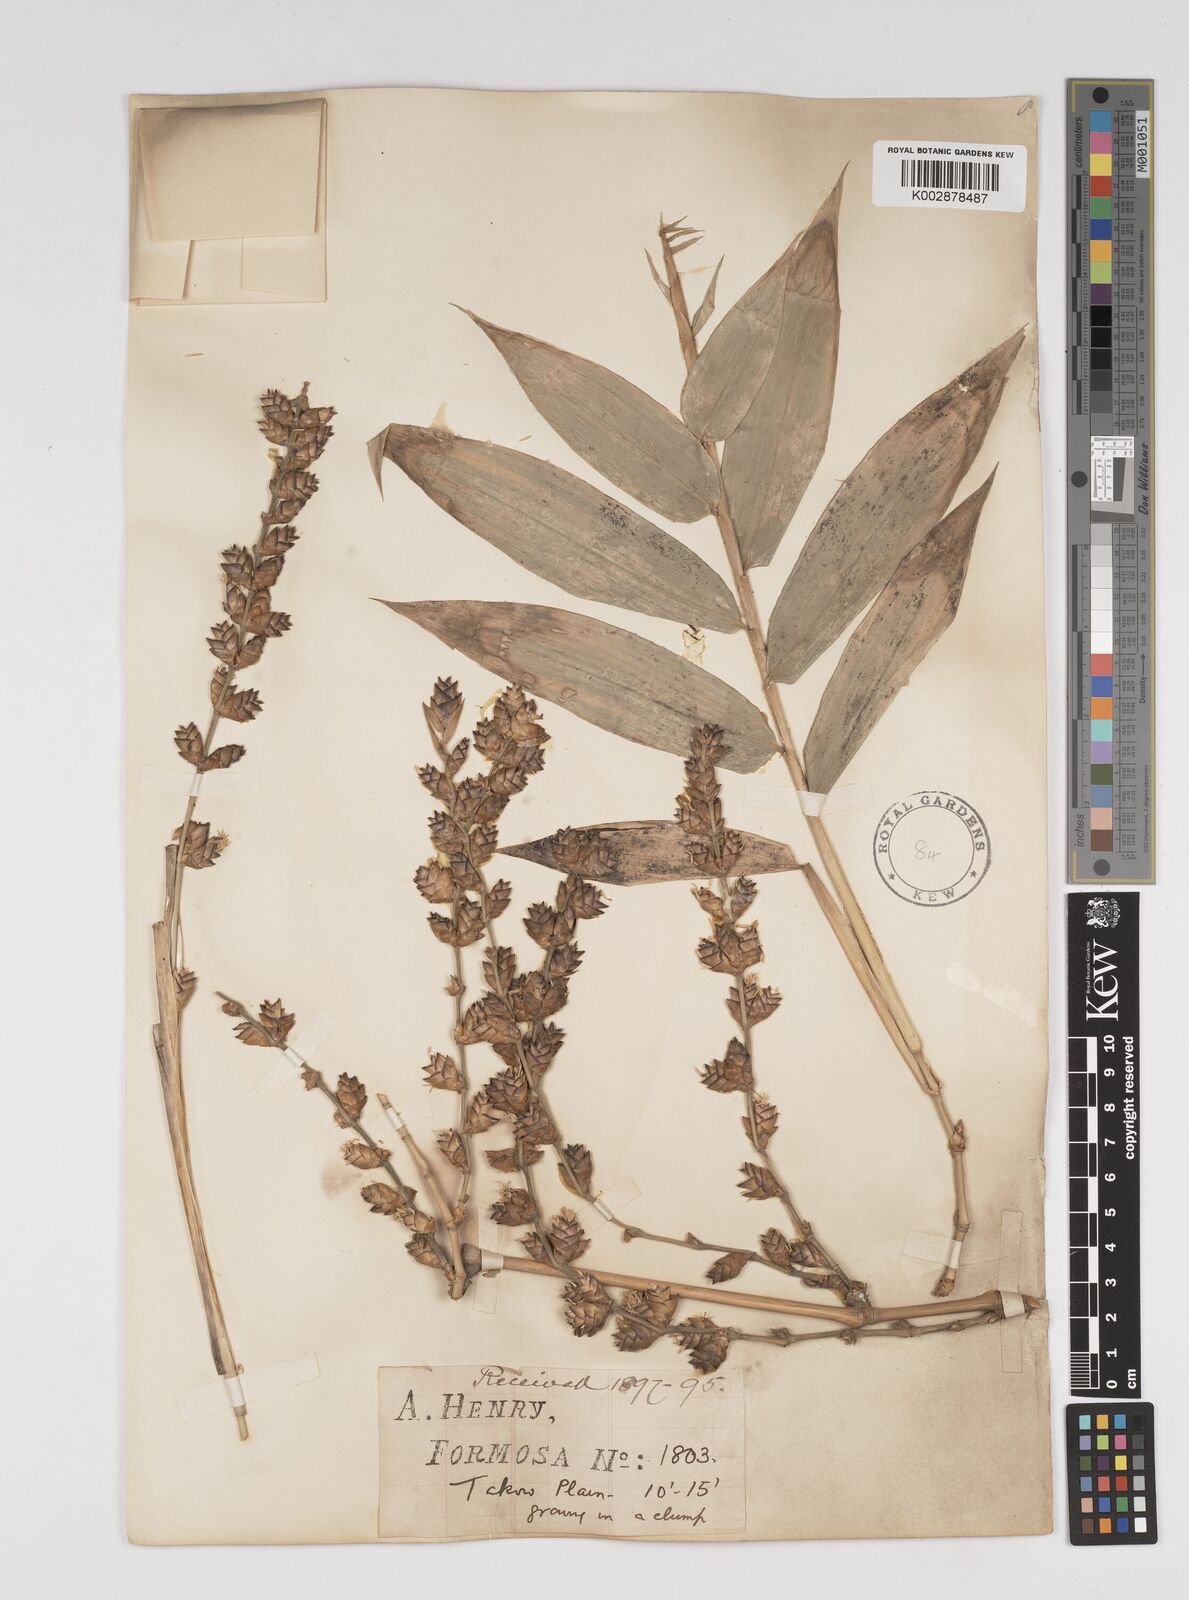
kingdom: Plantae
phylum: Tracheophyta
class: Liliopsida
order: Poales
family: Poaceae
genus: Dendrocalamus
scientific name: Dendrocalamus latiflorus
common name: Giant bamboo
